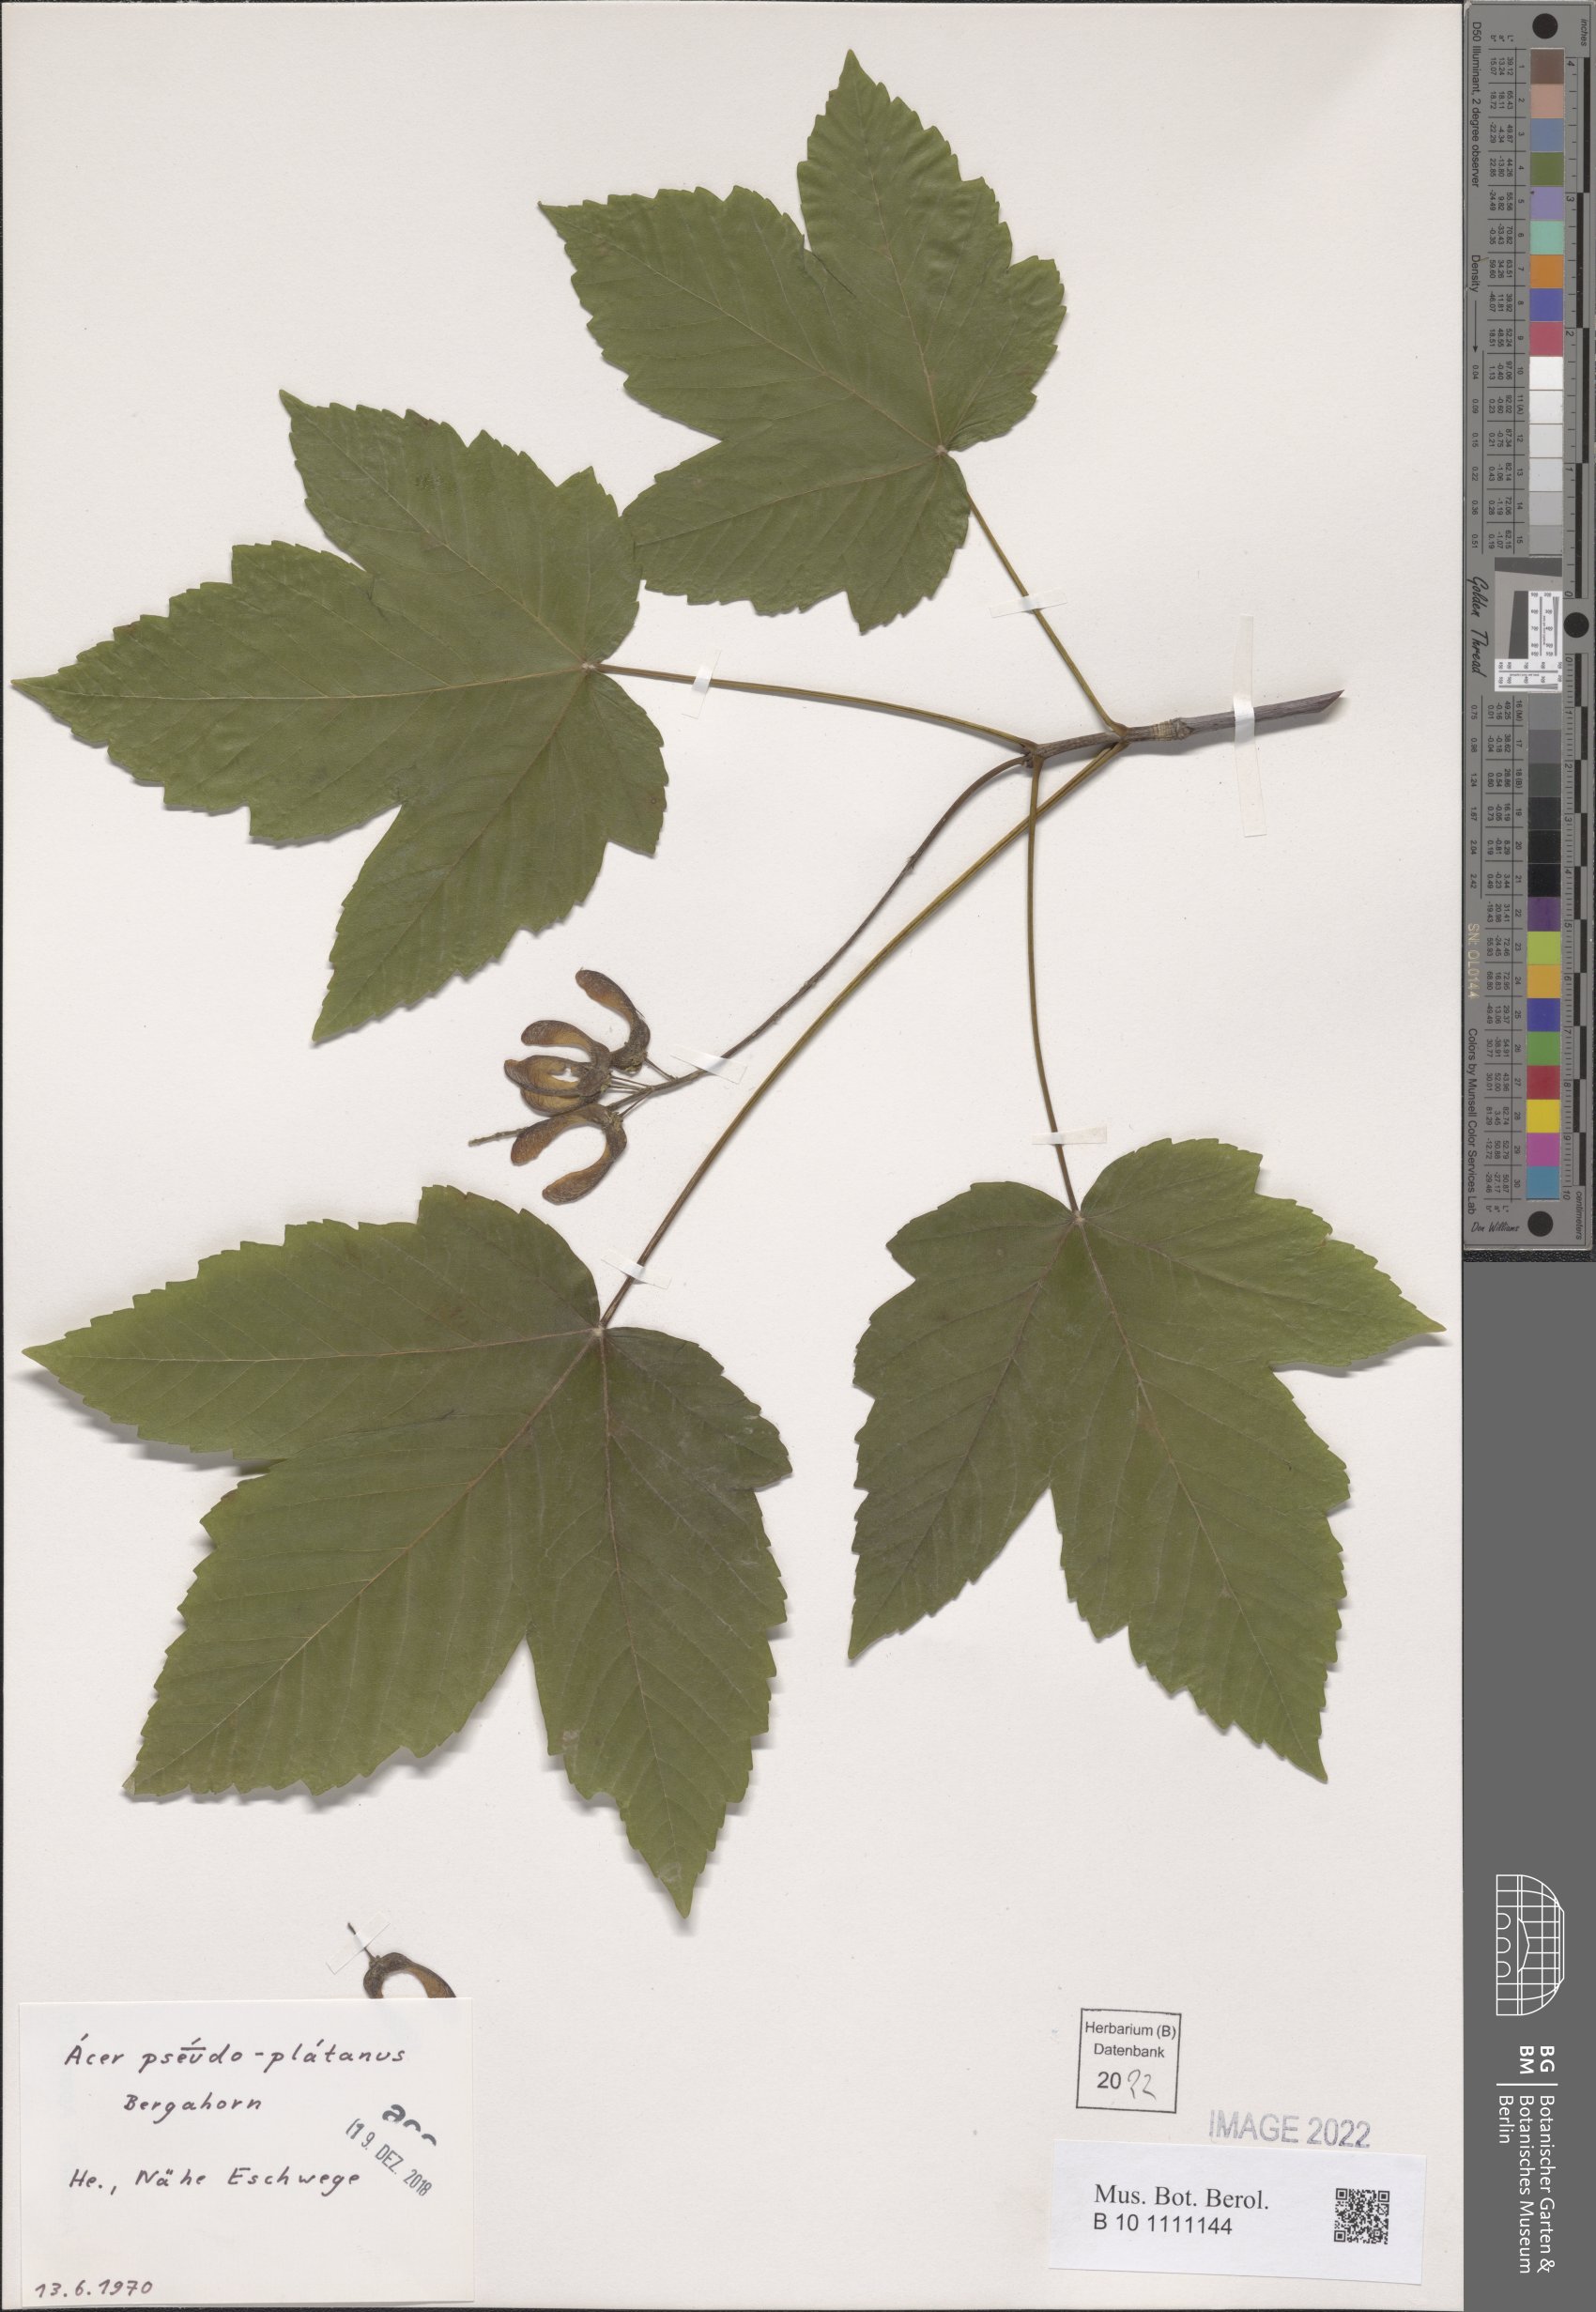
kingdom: Plantae
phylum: Tracheophyta
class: Magnoliopsida
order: Sapindales
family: Sapindaceae
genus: Acer
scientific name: Acer pseudoplatanus
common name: Sycamore
